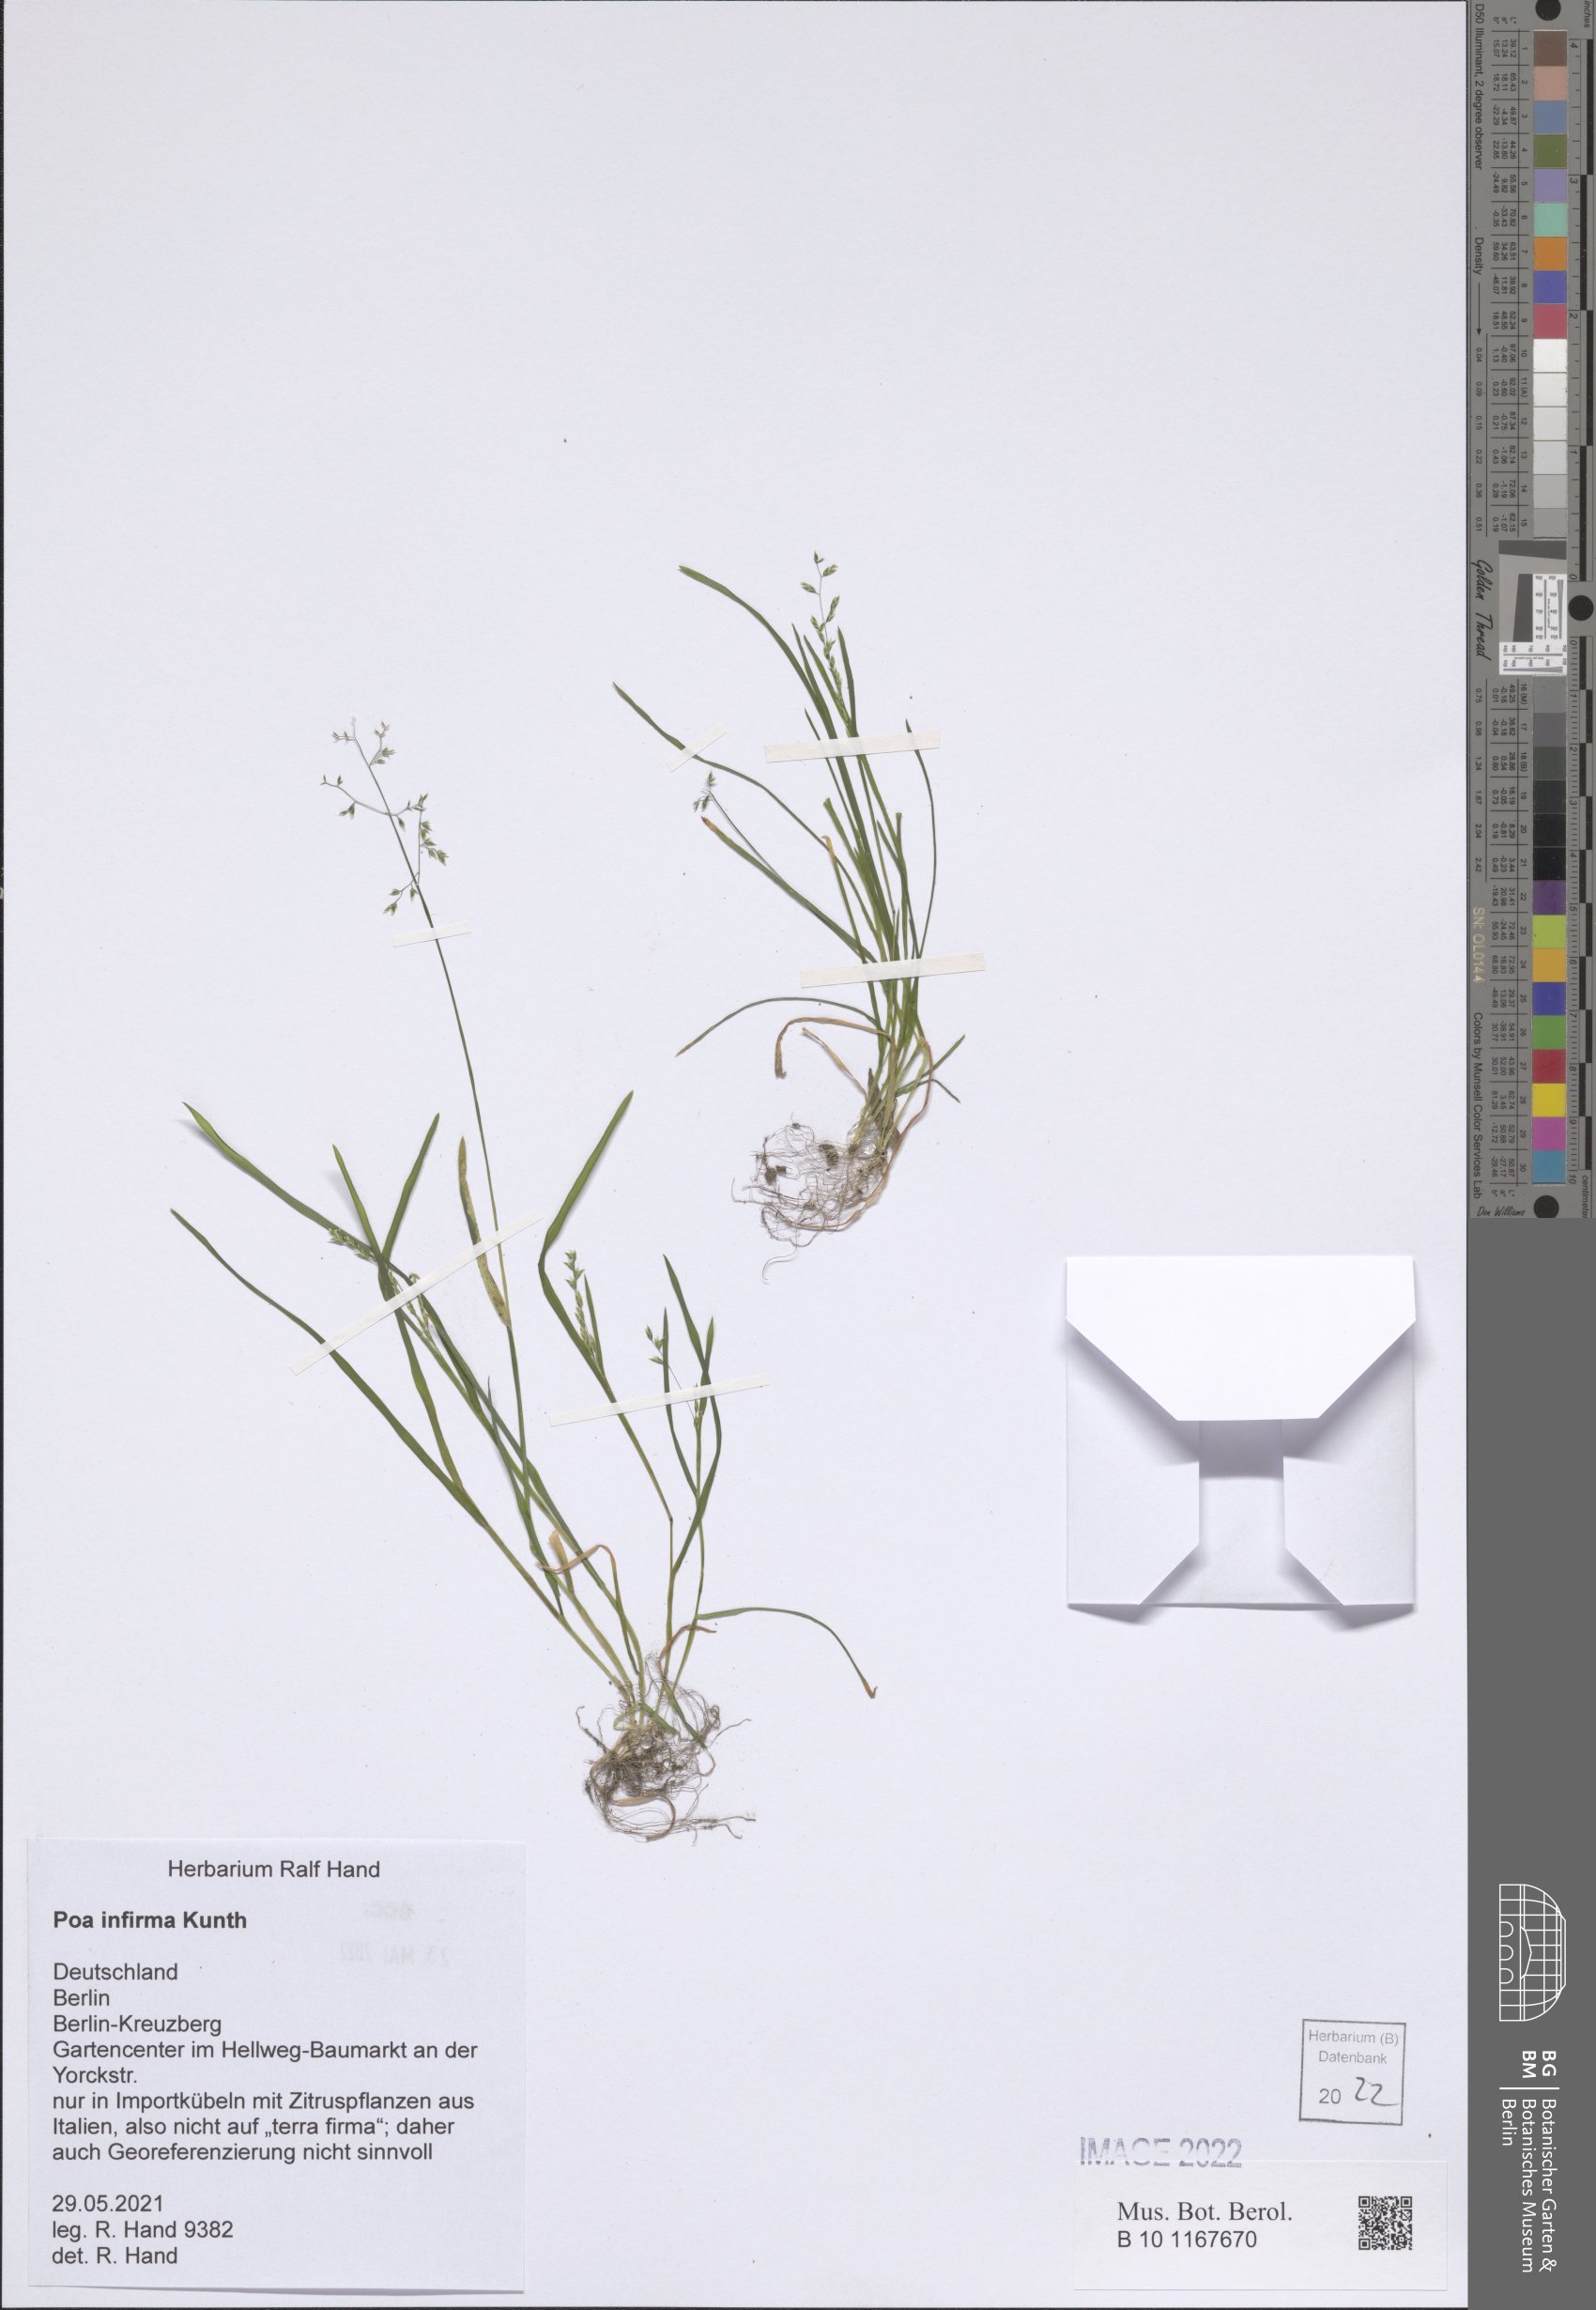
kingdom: Plantae
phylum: Tracheophyta
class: Liliopsida
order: Poales
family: Poaceae
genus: Poa
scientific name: Poa infirma
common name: Weak bluegrass
